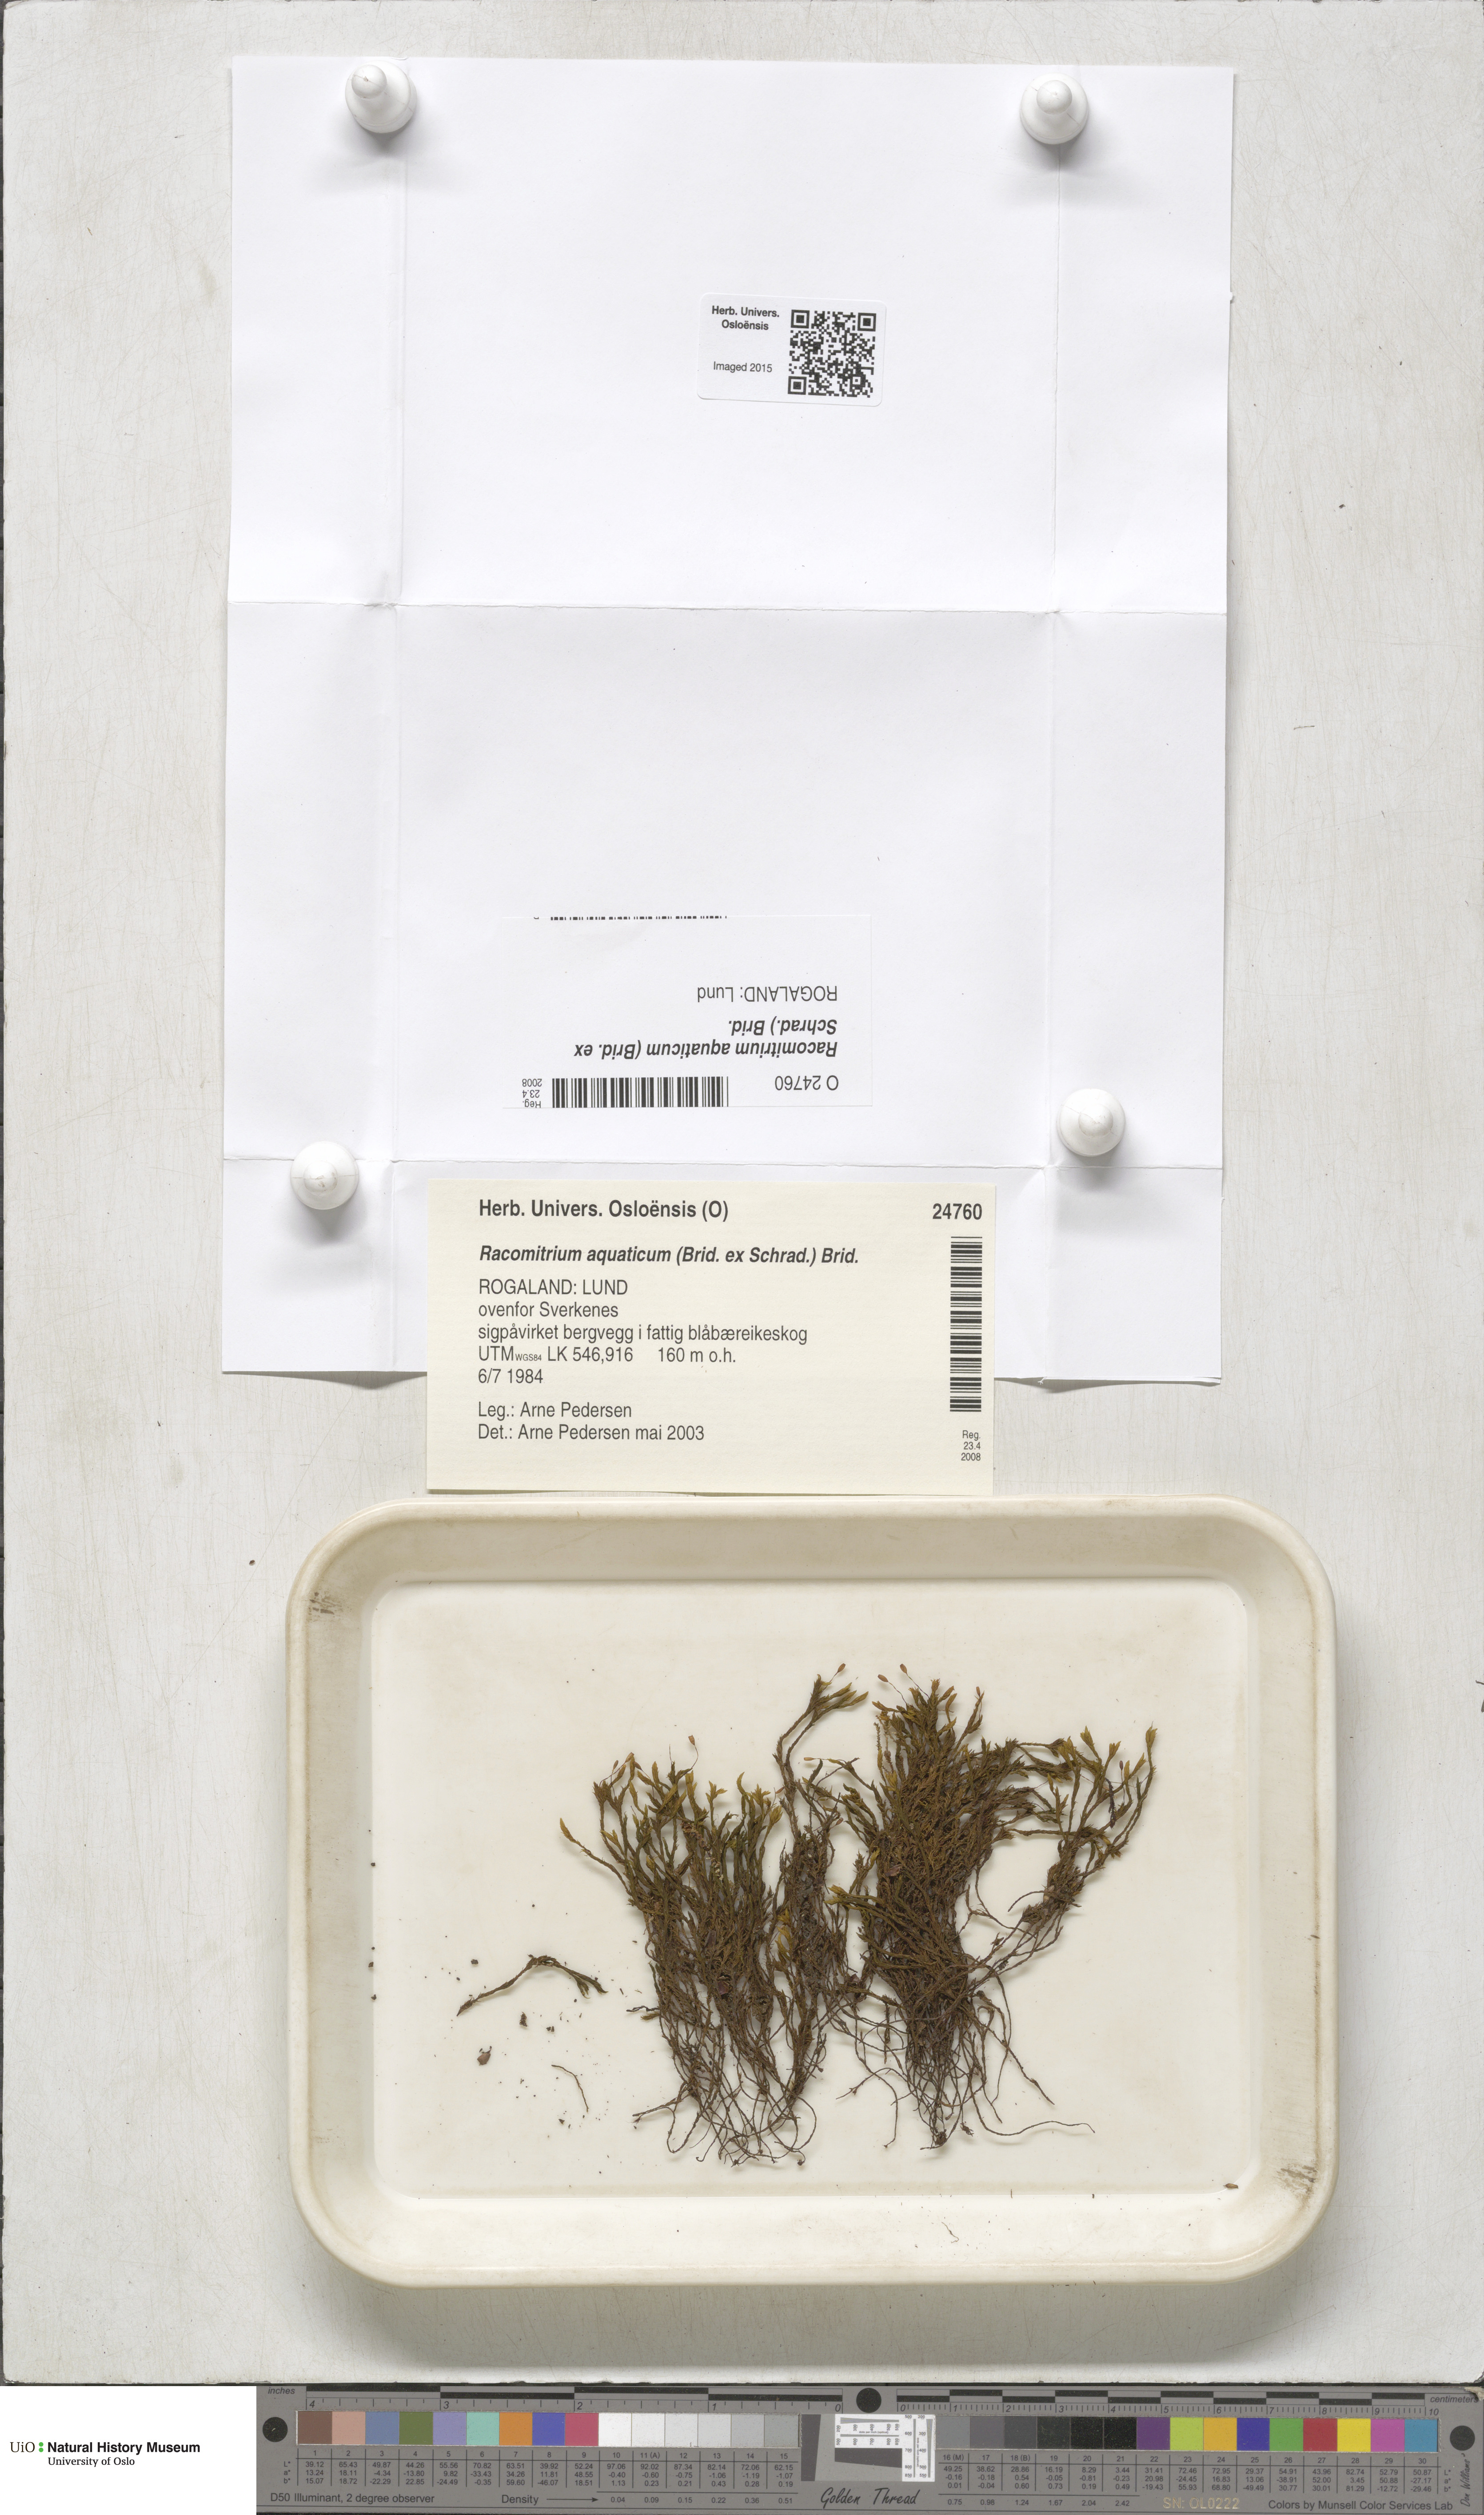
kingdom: Plantae
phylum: Bryophyta
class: Bryopsida
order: Grimmiales
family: Grimmiaceae
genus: Codriophorus
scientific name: Codriophorus aquaticus
